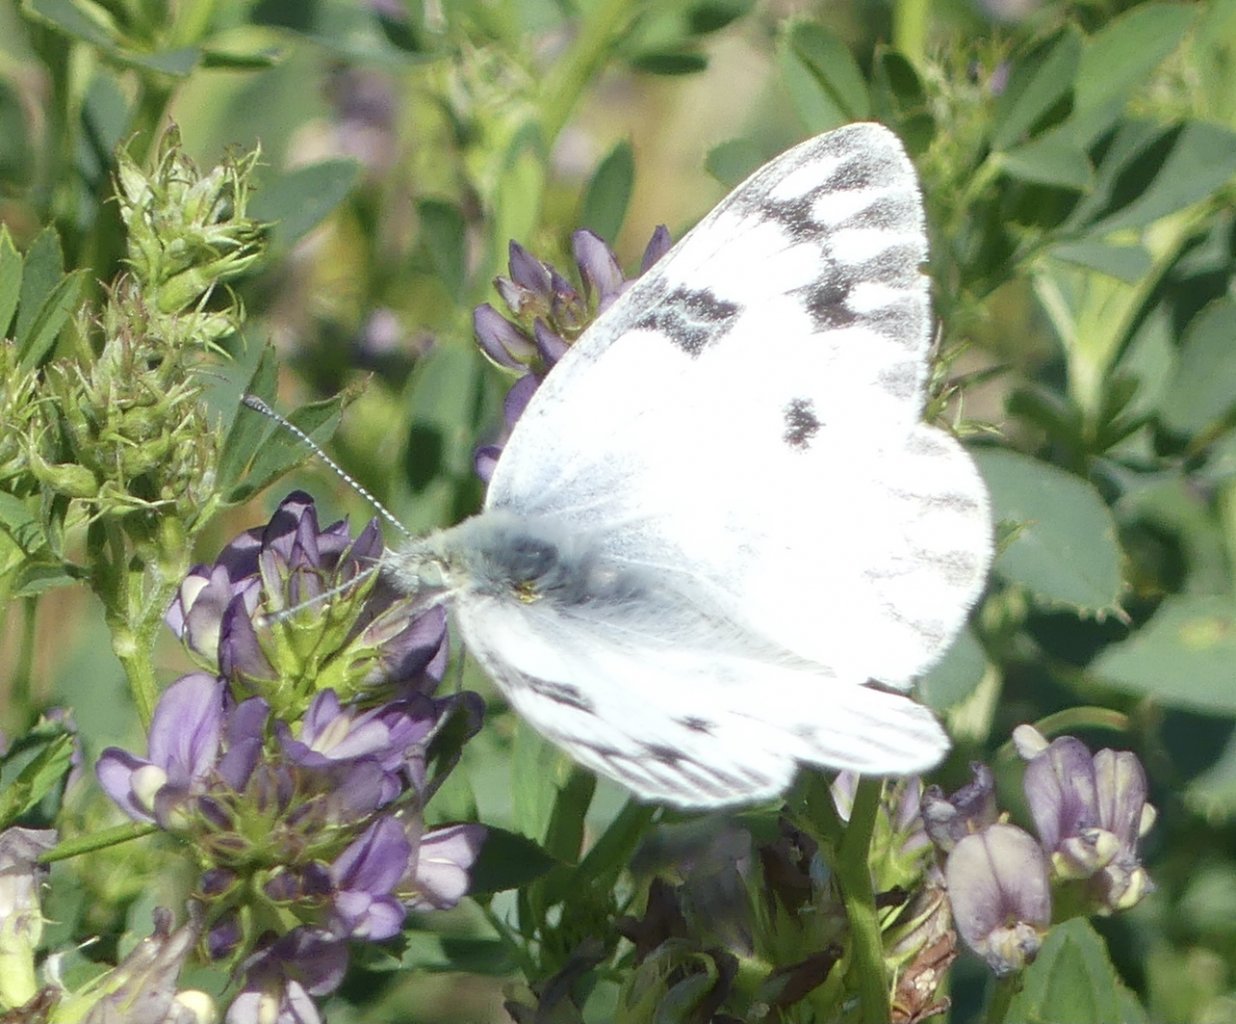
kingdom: Animalia
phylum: Arthropoda
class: Insecta
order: Lepidoptera
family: Pieridae
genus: Pontia
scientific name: Pontia occidentalis
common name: Western White
